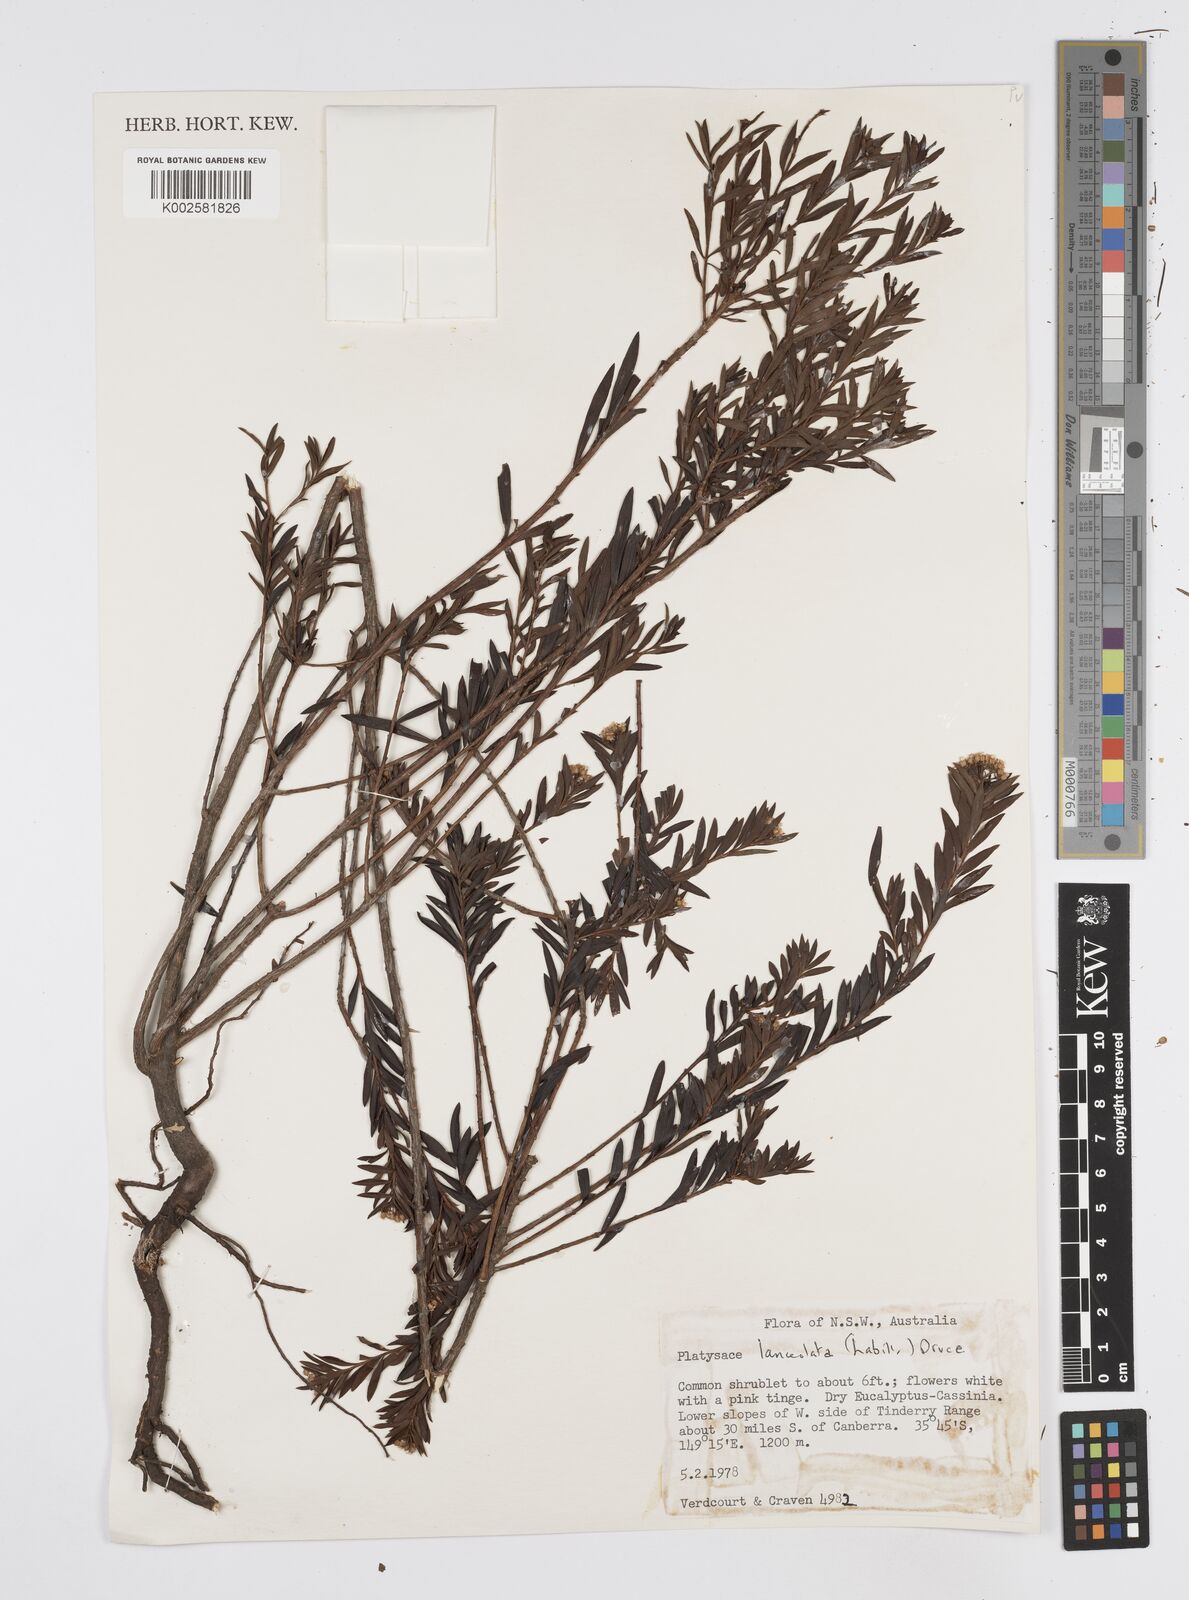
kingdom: Plantae
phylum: Tracheophyta
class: Magnoliopsida
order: Apiales
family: Apiaceae
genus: Platysace
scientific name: Platysace lanceolata
